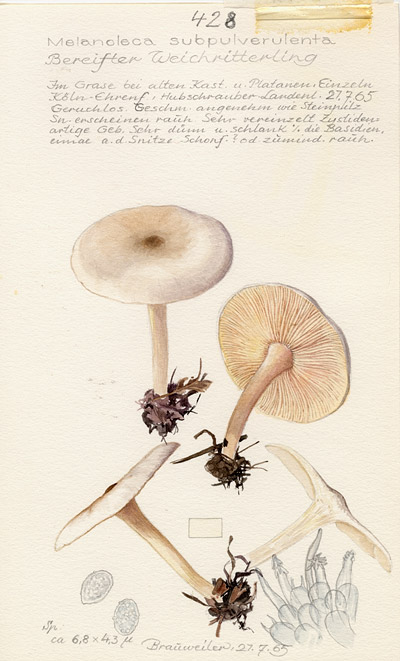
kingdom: Fungi
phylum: Basidiomycota
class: Agaricomycetes
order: Agaricales
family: Tricholomataceae
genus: Melanoleuca
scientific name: Melanoleuca subpulverulenta
